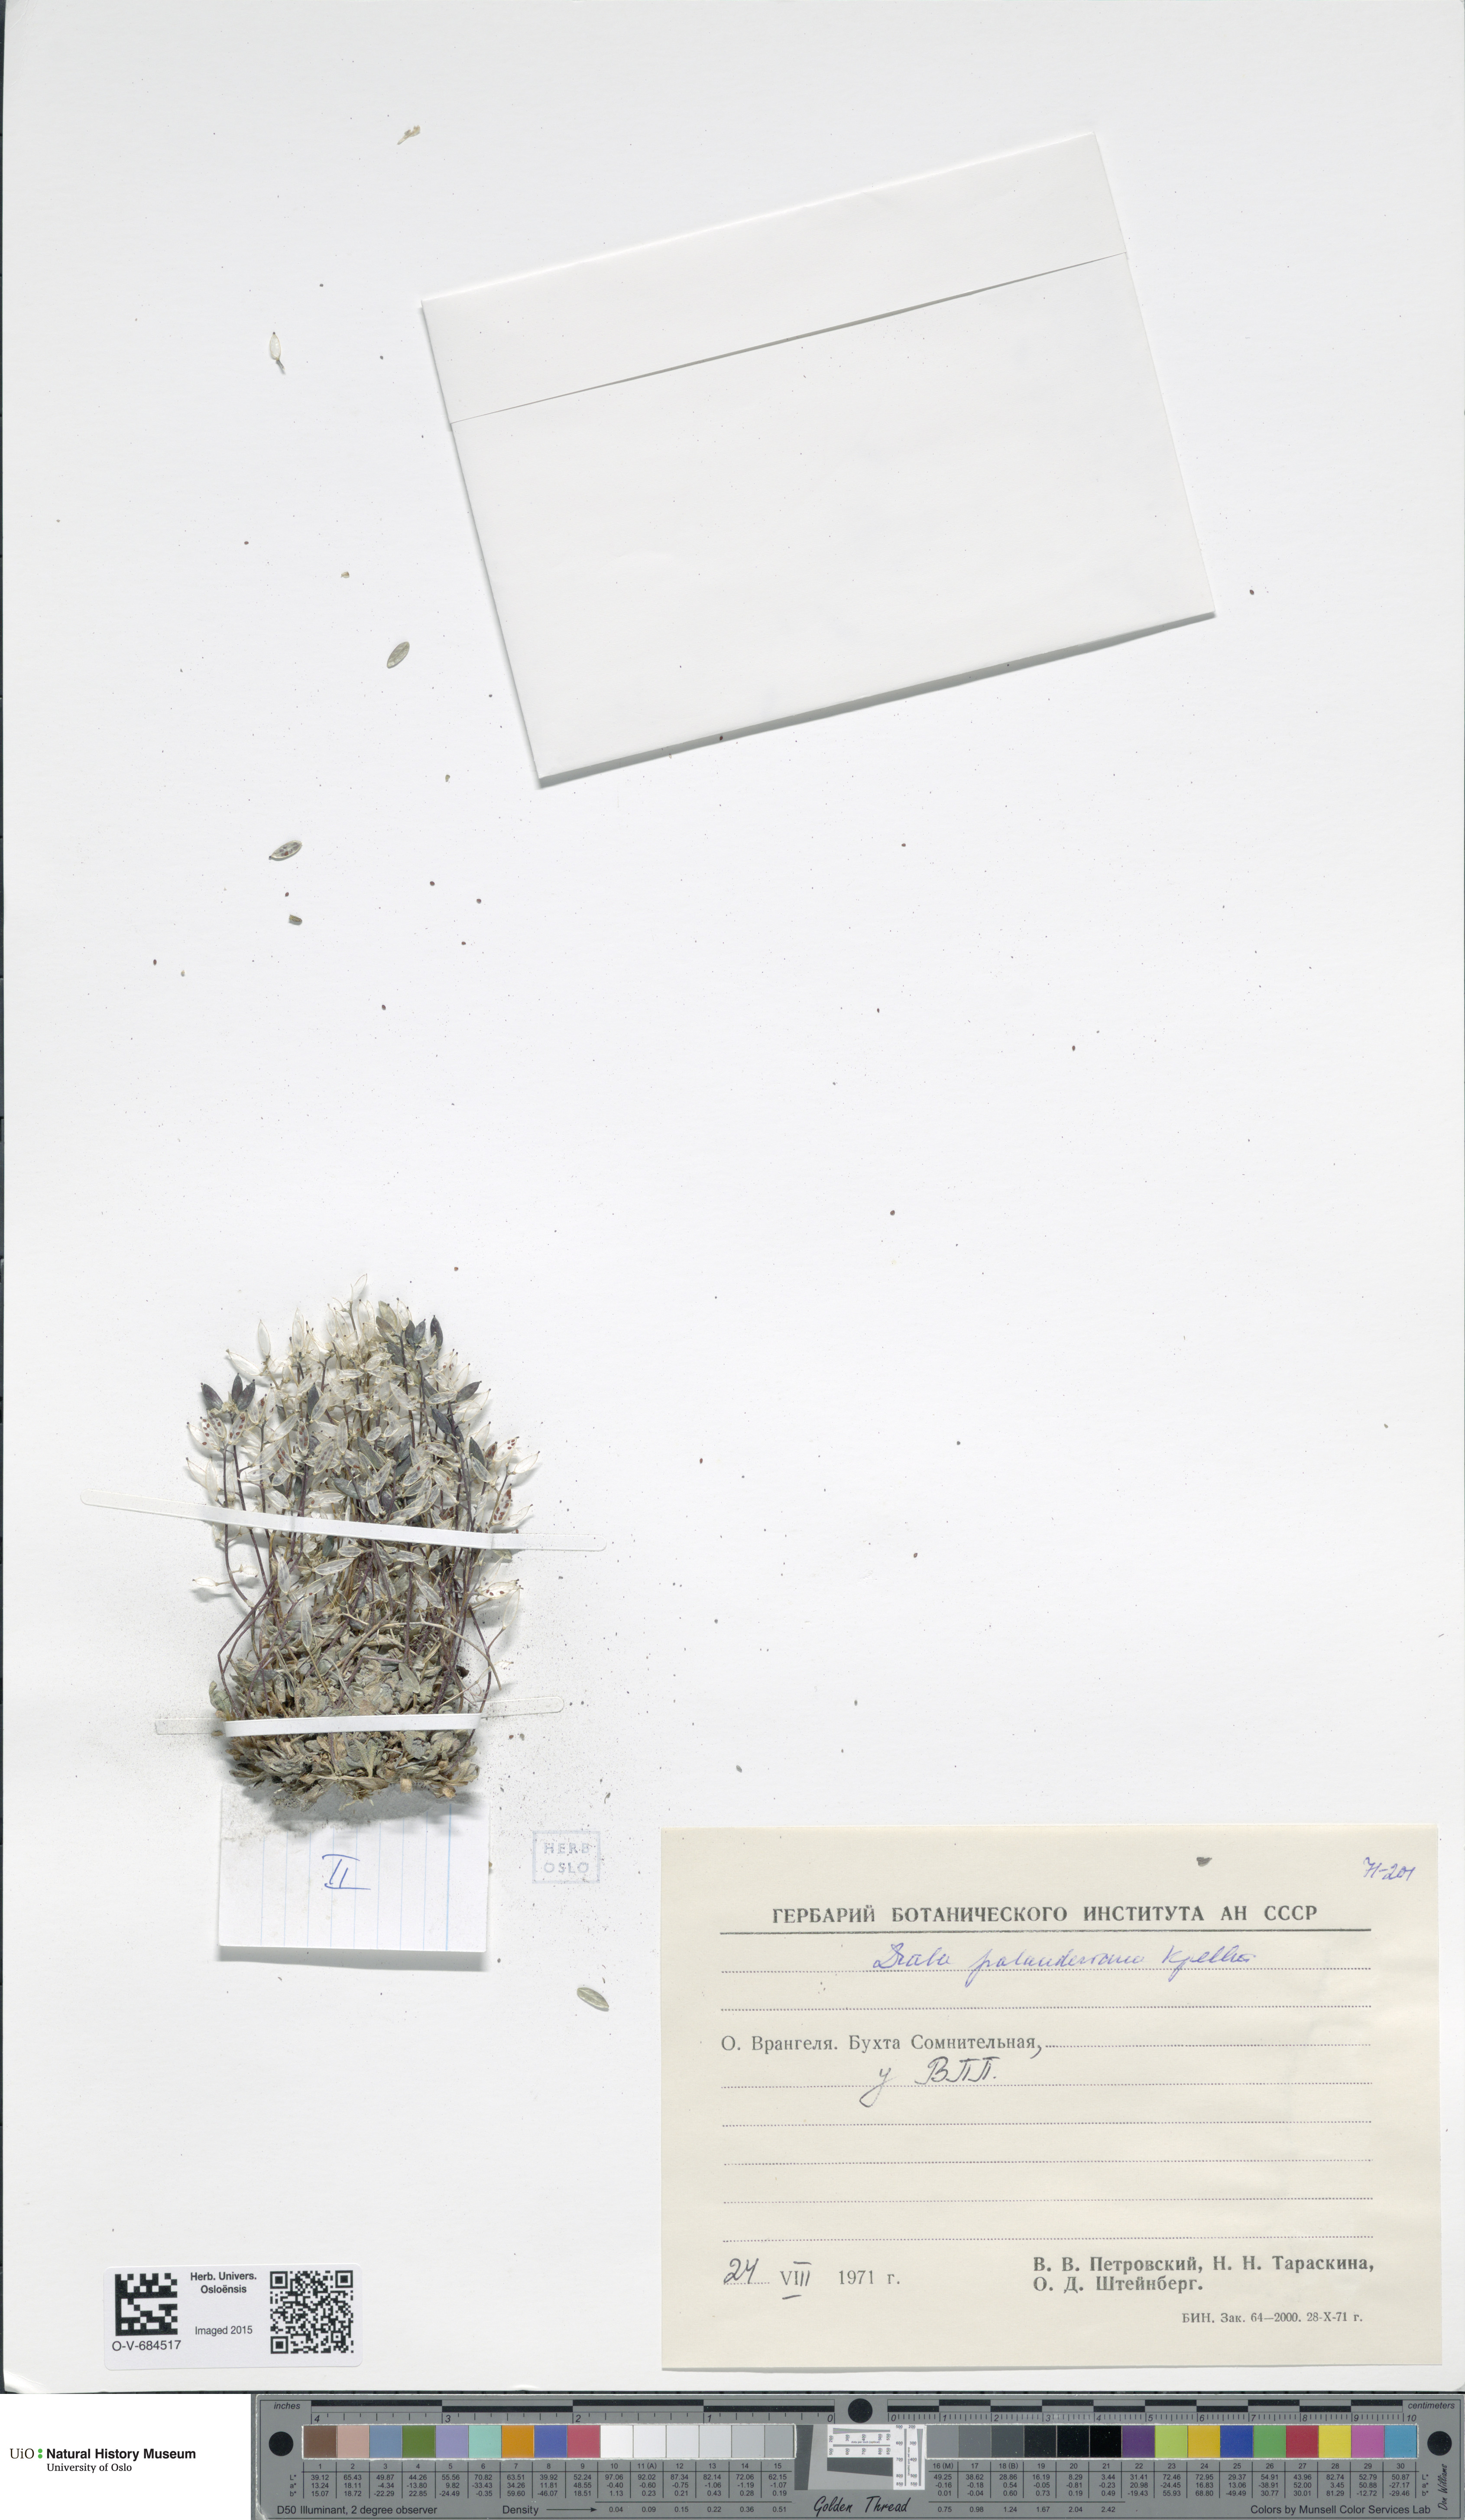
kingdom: Plantae
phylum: Tracheophyta
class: Magnoliopsida
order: Brassicales
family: Brassicaceae
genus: Draba
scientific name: Draba palanderiana
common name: Palander's draba
